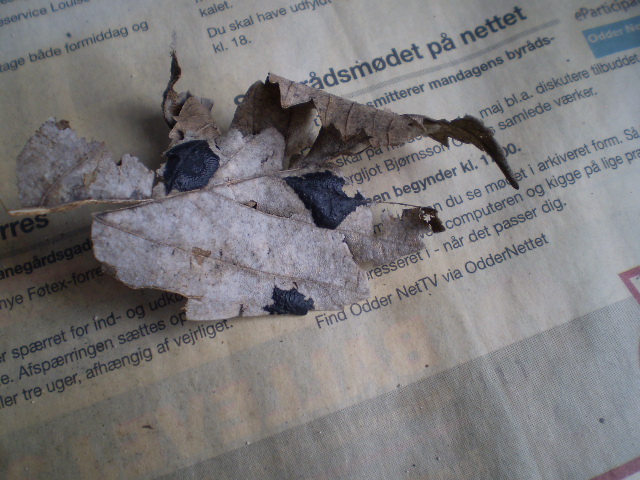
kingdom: Fungi
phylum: Ascomycota
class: Leotiomycetes
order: Rhytismatales
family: Rhytismataceae
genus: Rhytisma
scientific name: Rhytisma acerinum
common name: ahorn-rynkeplet
